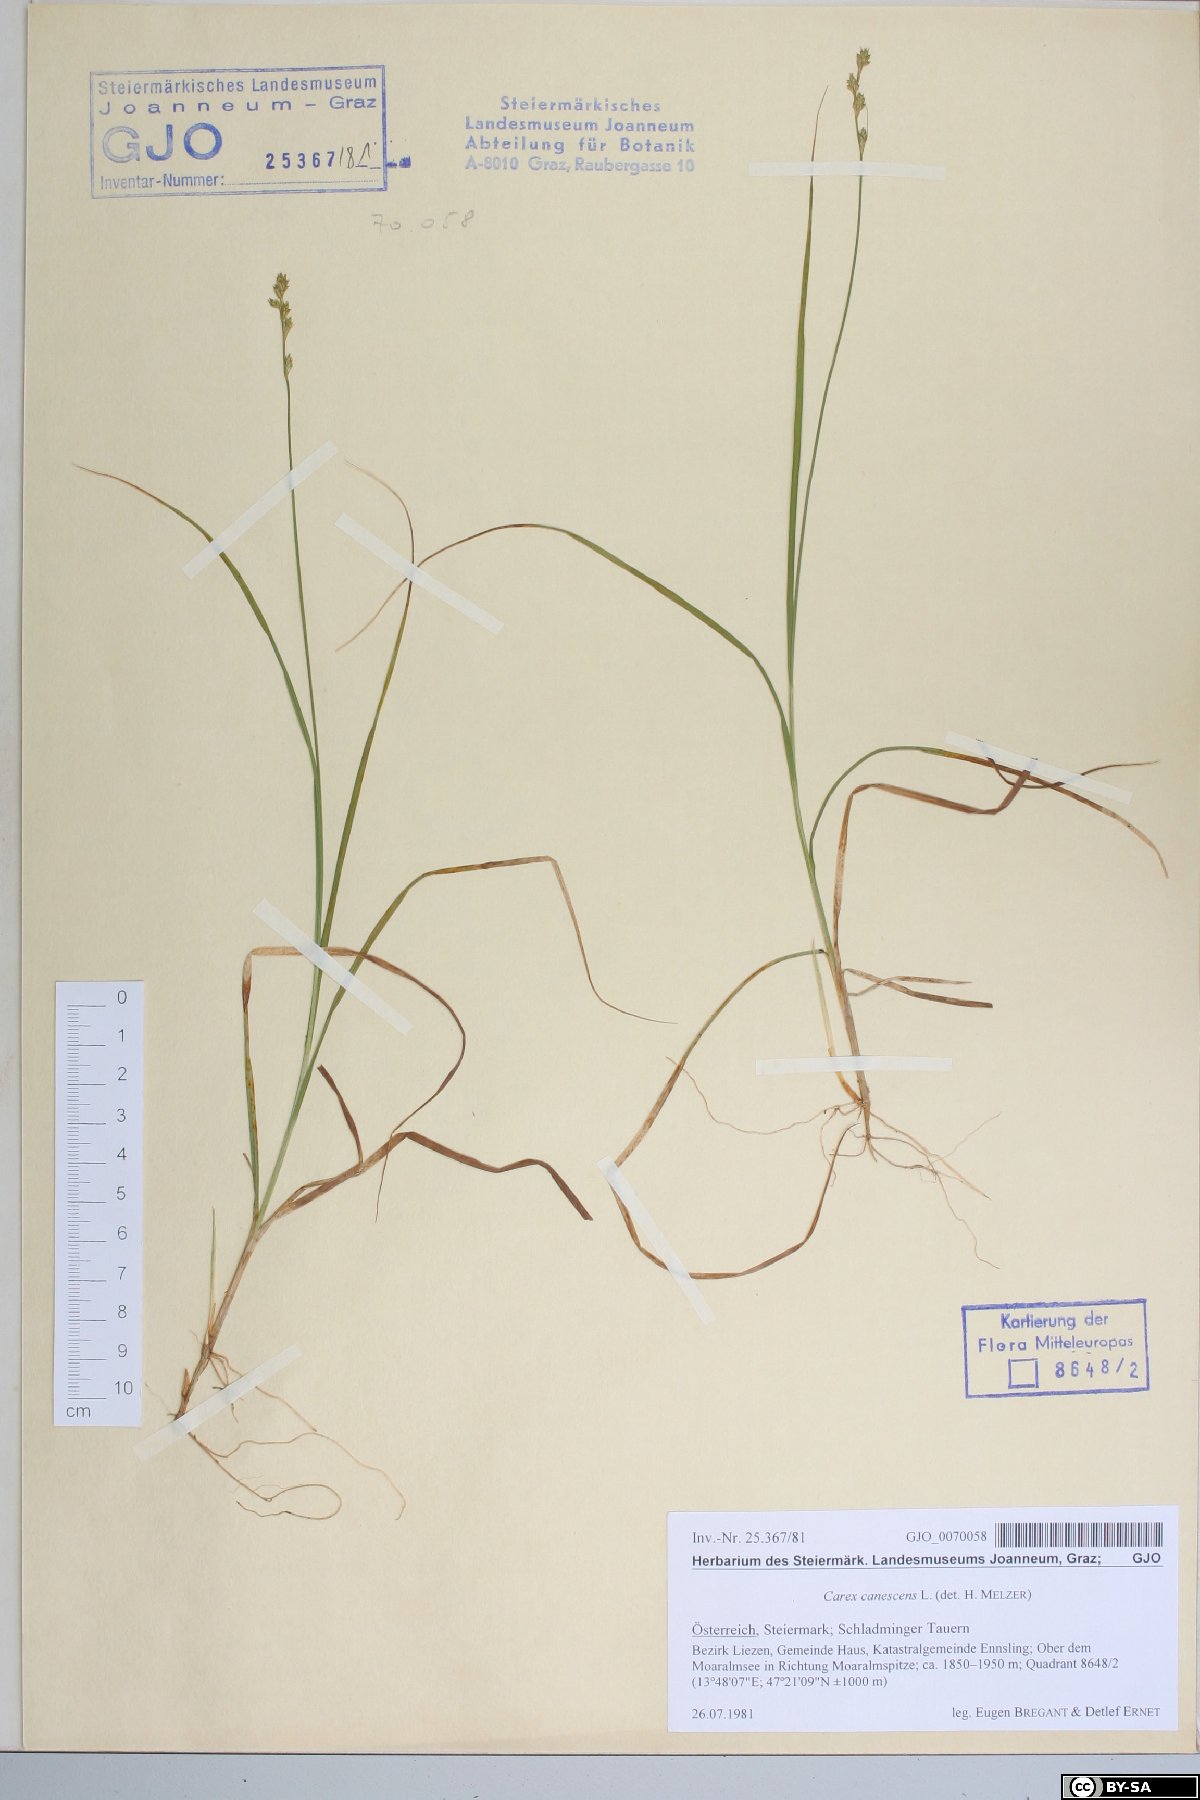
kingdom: Plantae
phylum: Tracheophyta
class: Liliopsida
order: Poales
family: Cyperaceae
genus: Carex
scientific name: Carex canescens
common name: White sedge
